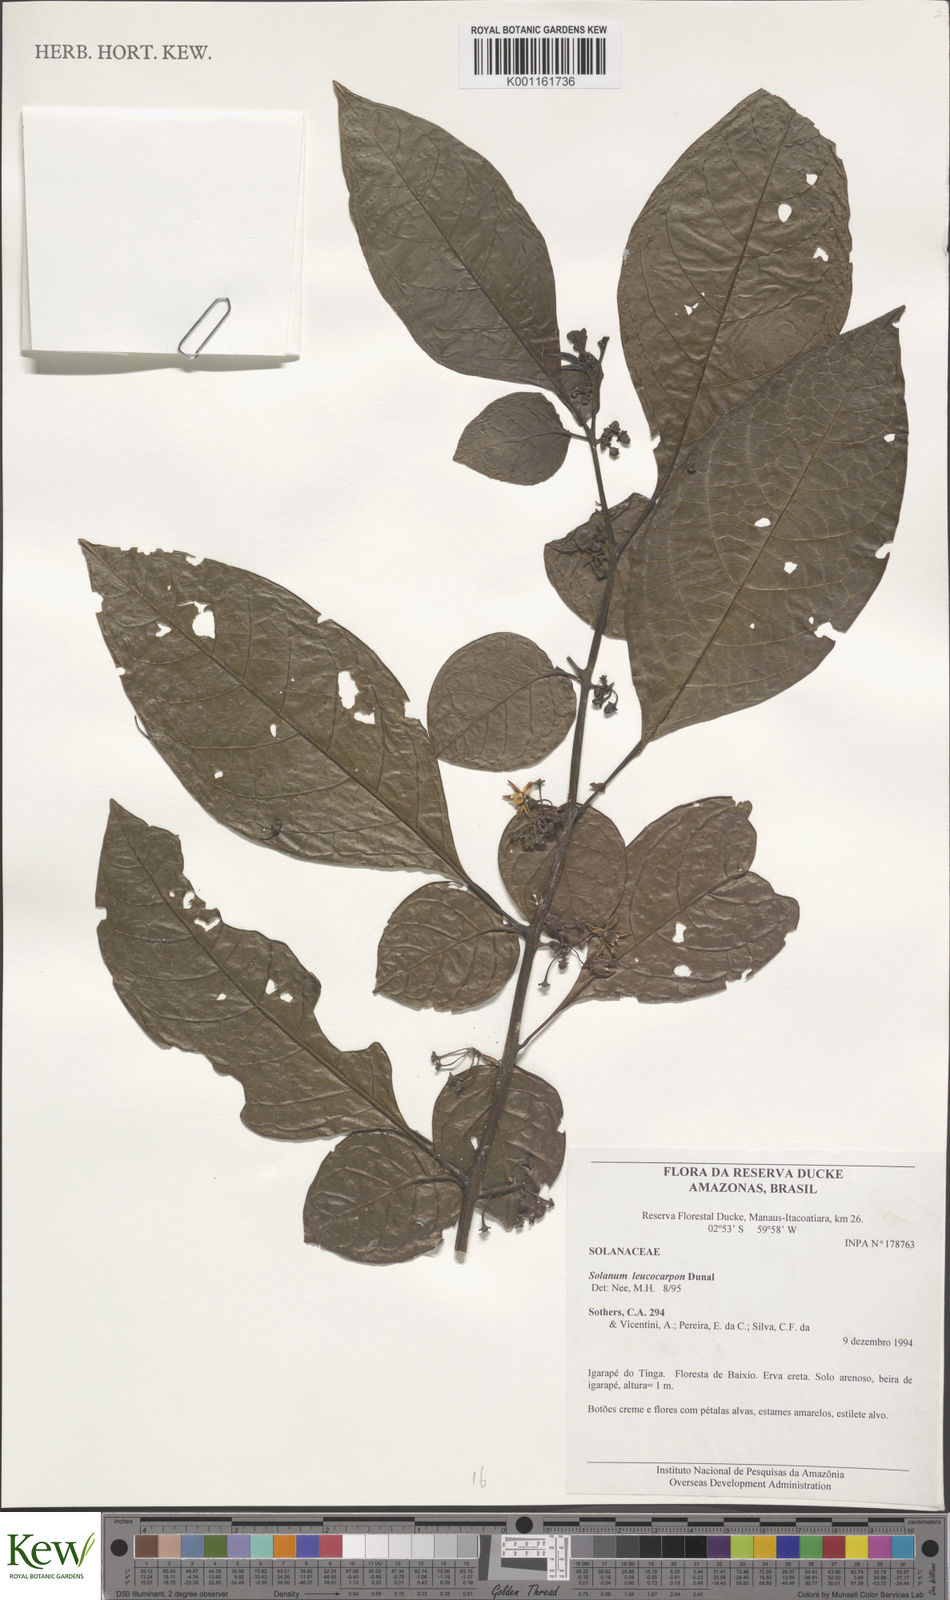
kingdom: Plantae
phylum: Tracheophyta
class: Magnoliopsida
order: Solanales
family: Solanaceae
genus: Solanum
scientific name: Solanum leucocarpon
